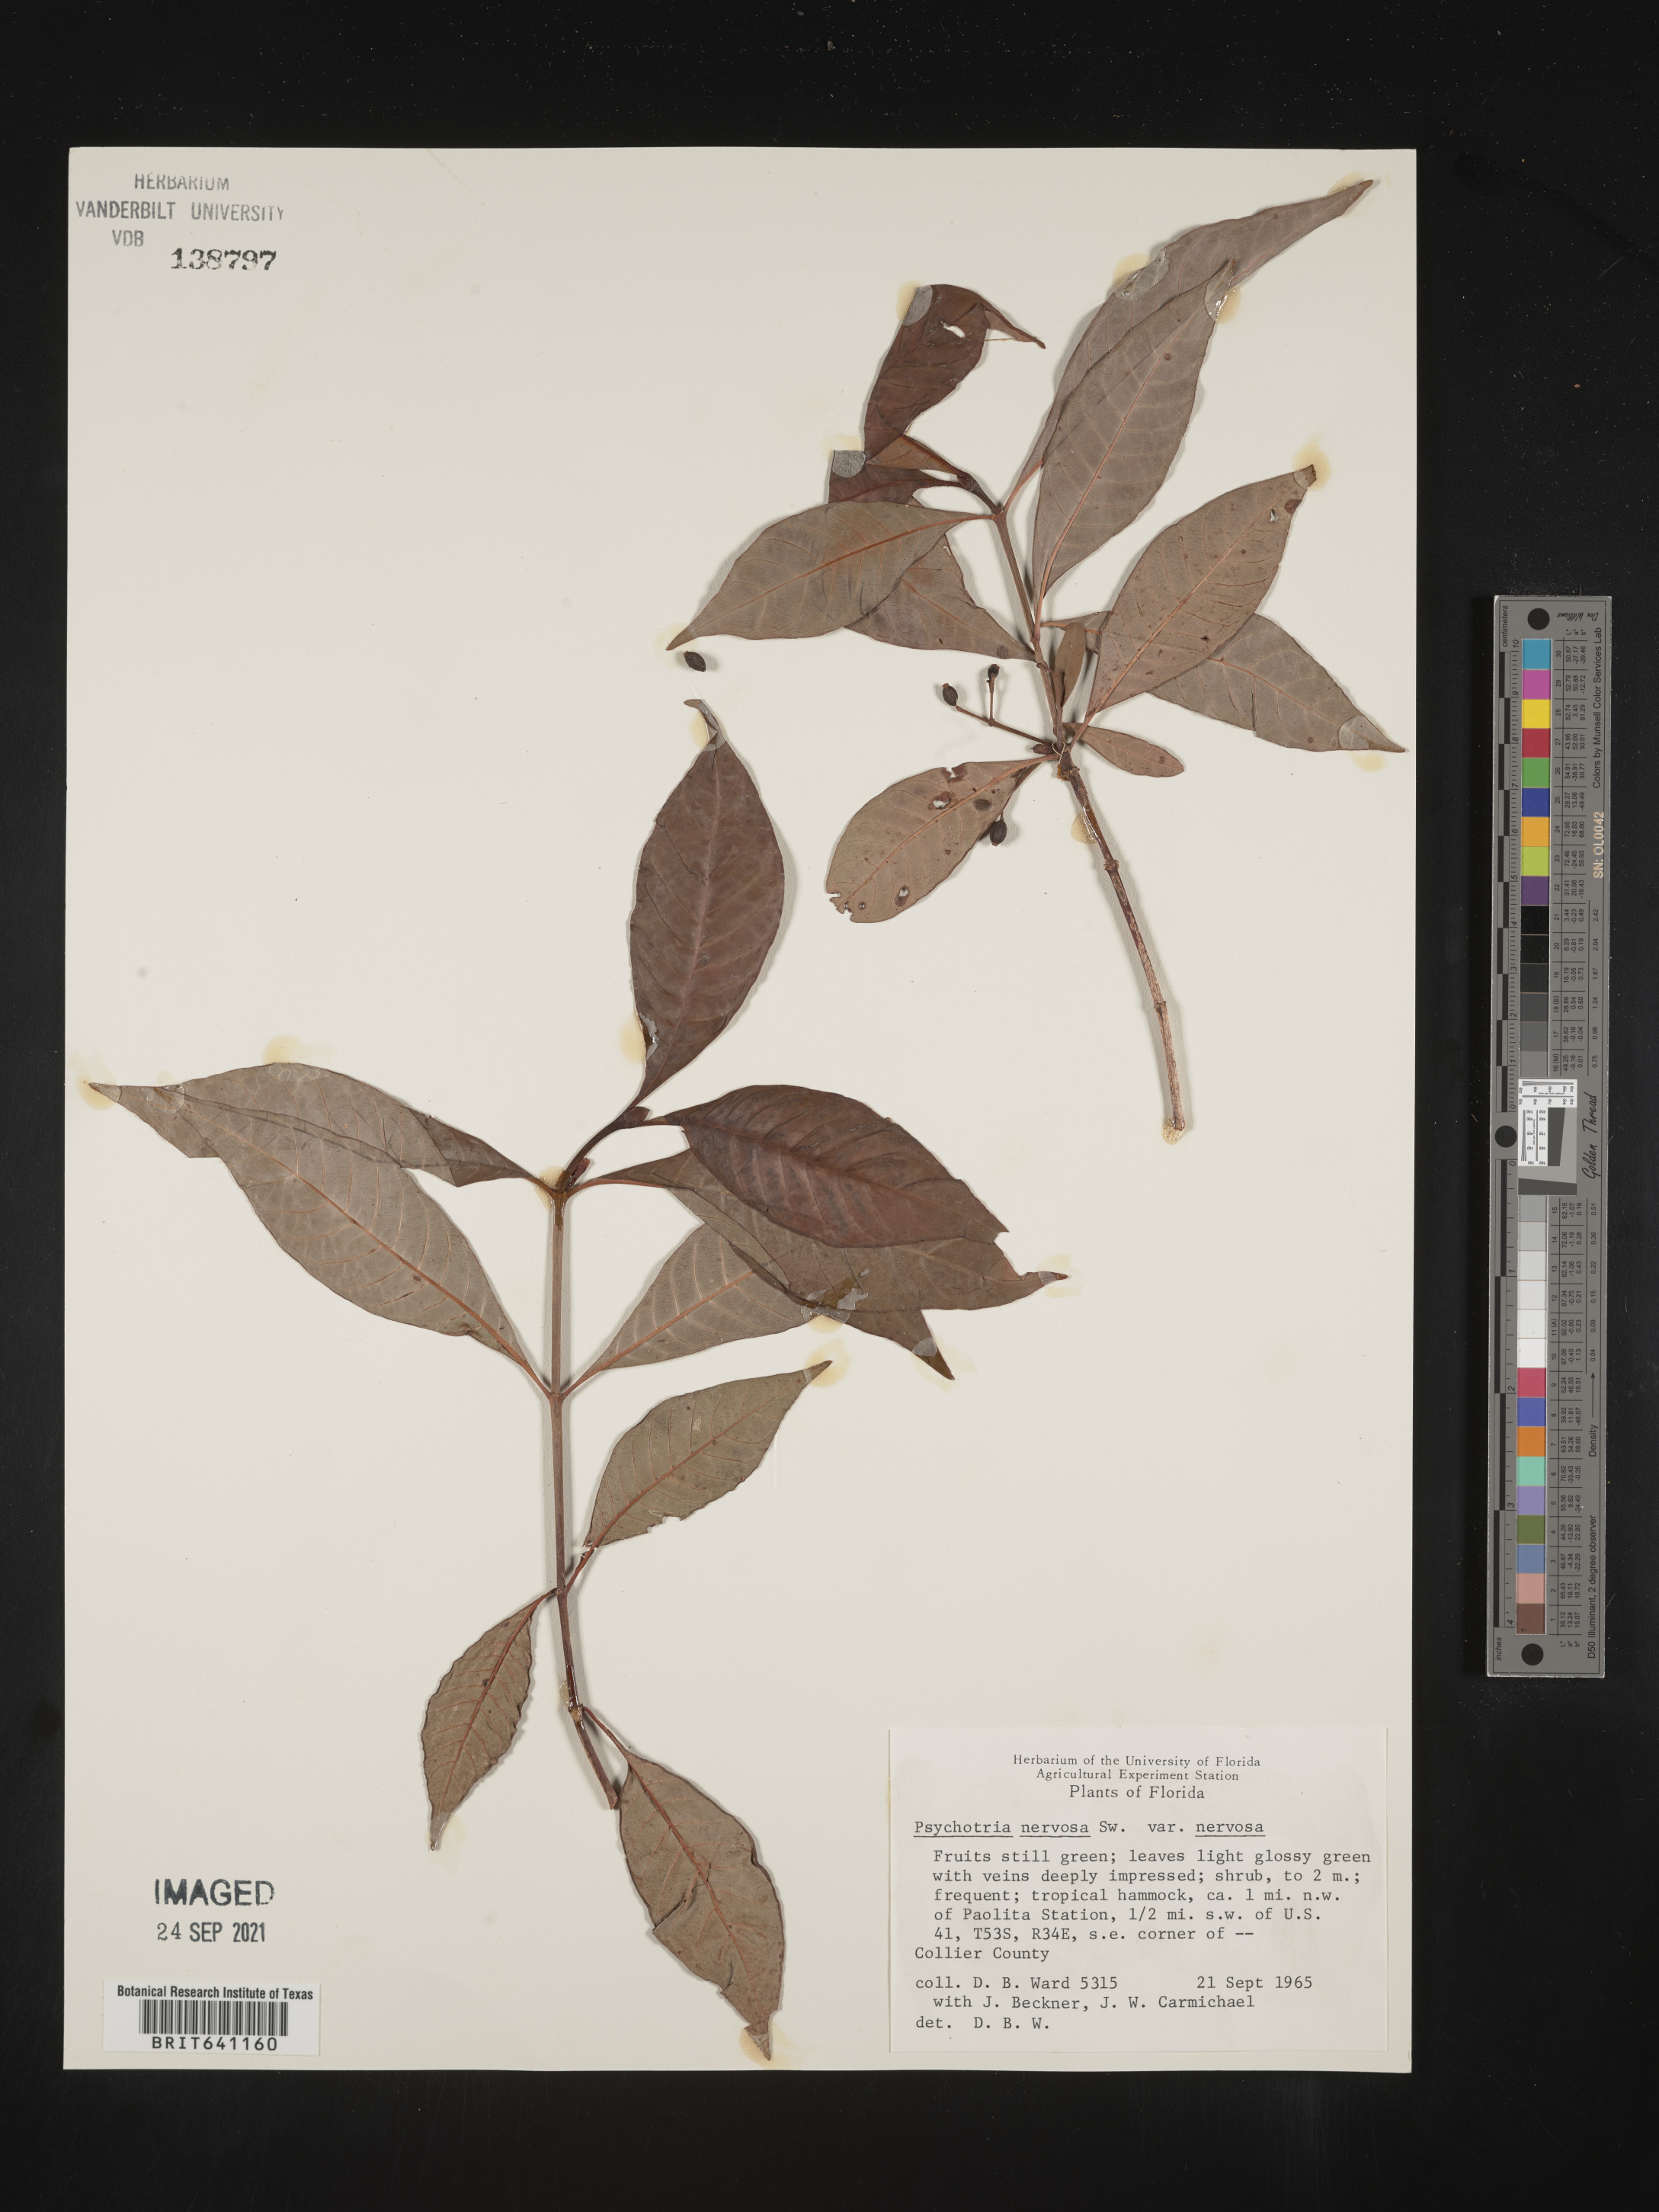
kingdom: Plantae
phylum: Tracheophyta
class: Magnoliopsida
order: Gentianales
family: Rubiaceae
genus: Psychotria
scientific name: Psychotria nervosa
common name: Bastard cankerberry
